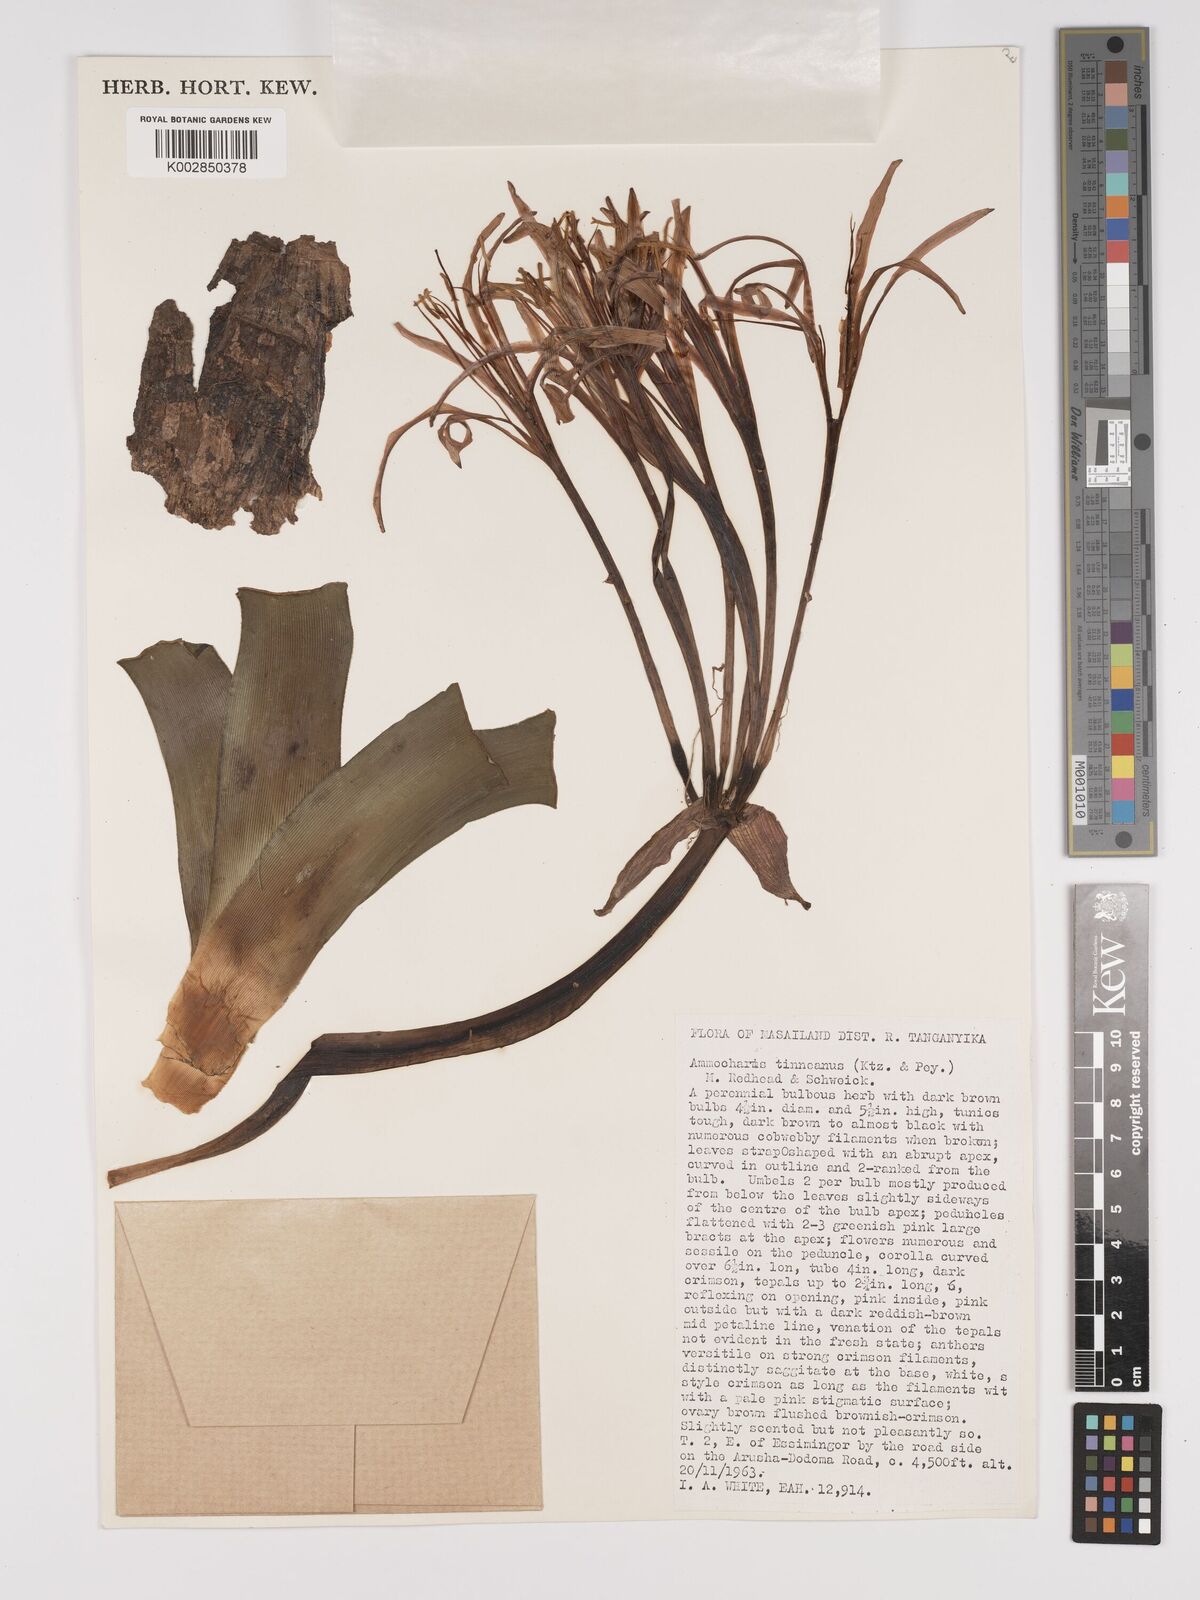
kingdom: Plantae
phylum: Tracheophyta
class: Liliopsida
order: Asparagales
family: Amaryllidaceae
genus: Ammocharis
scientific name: Ammocharis tinneana
